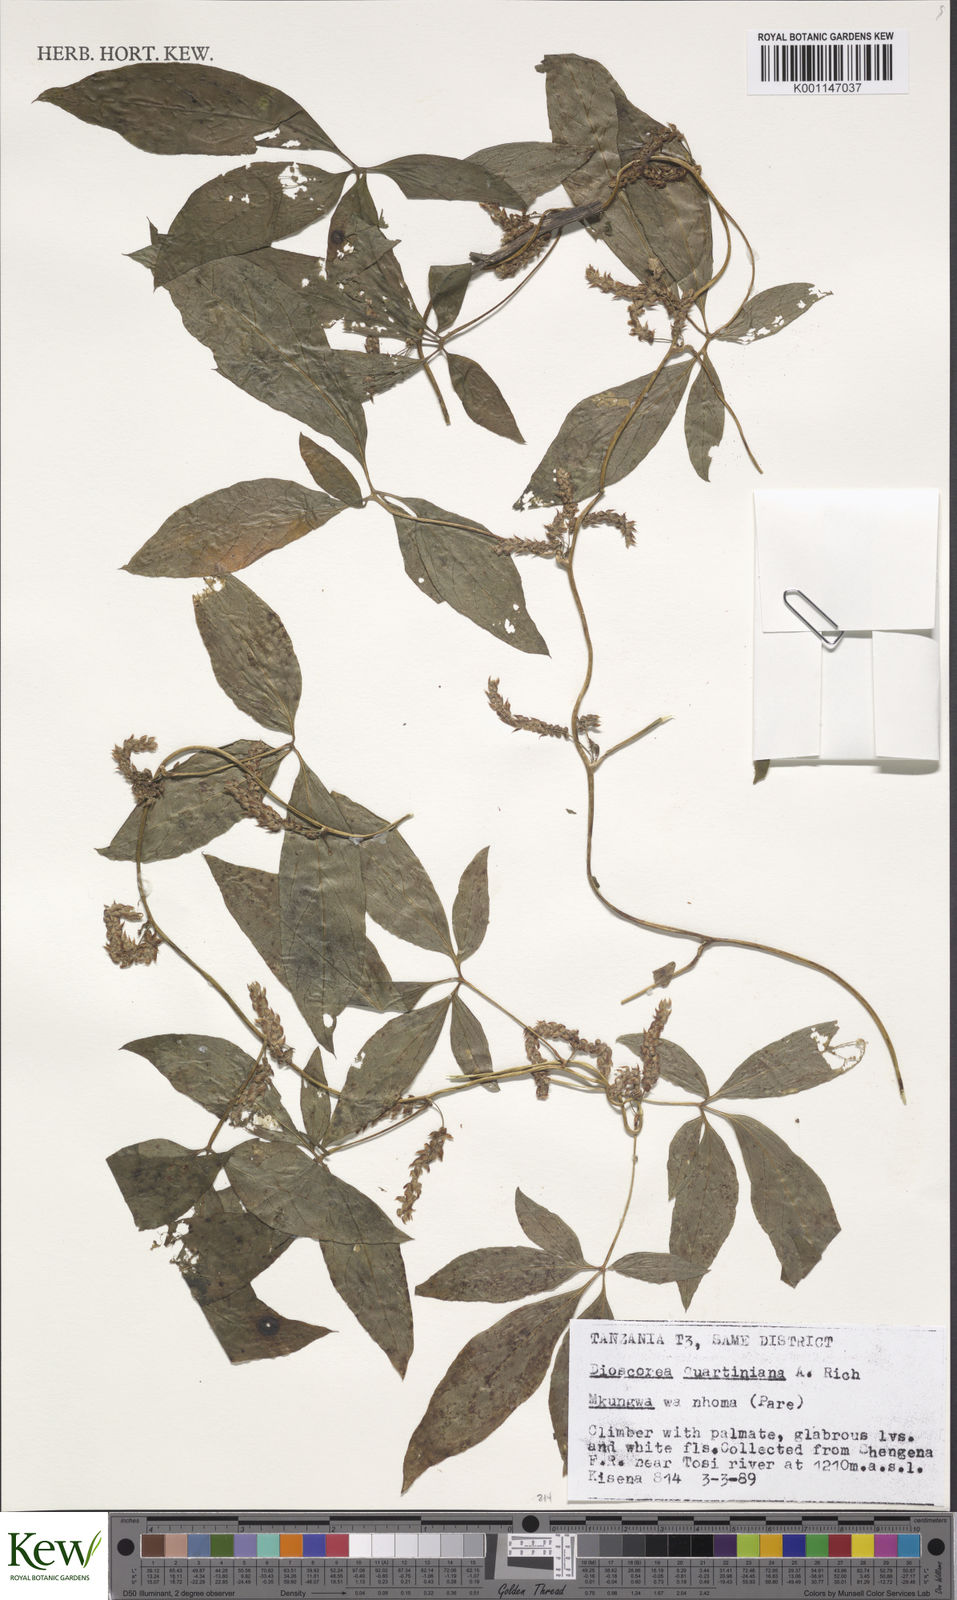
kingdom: Plantae
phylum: Tracheophyta
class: Liliopsida
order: Dioscoreales
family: Dioscoreaceae
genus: Dioscorea
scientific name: Dioscorea quartiniana
